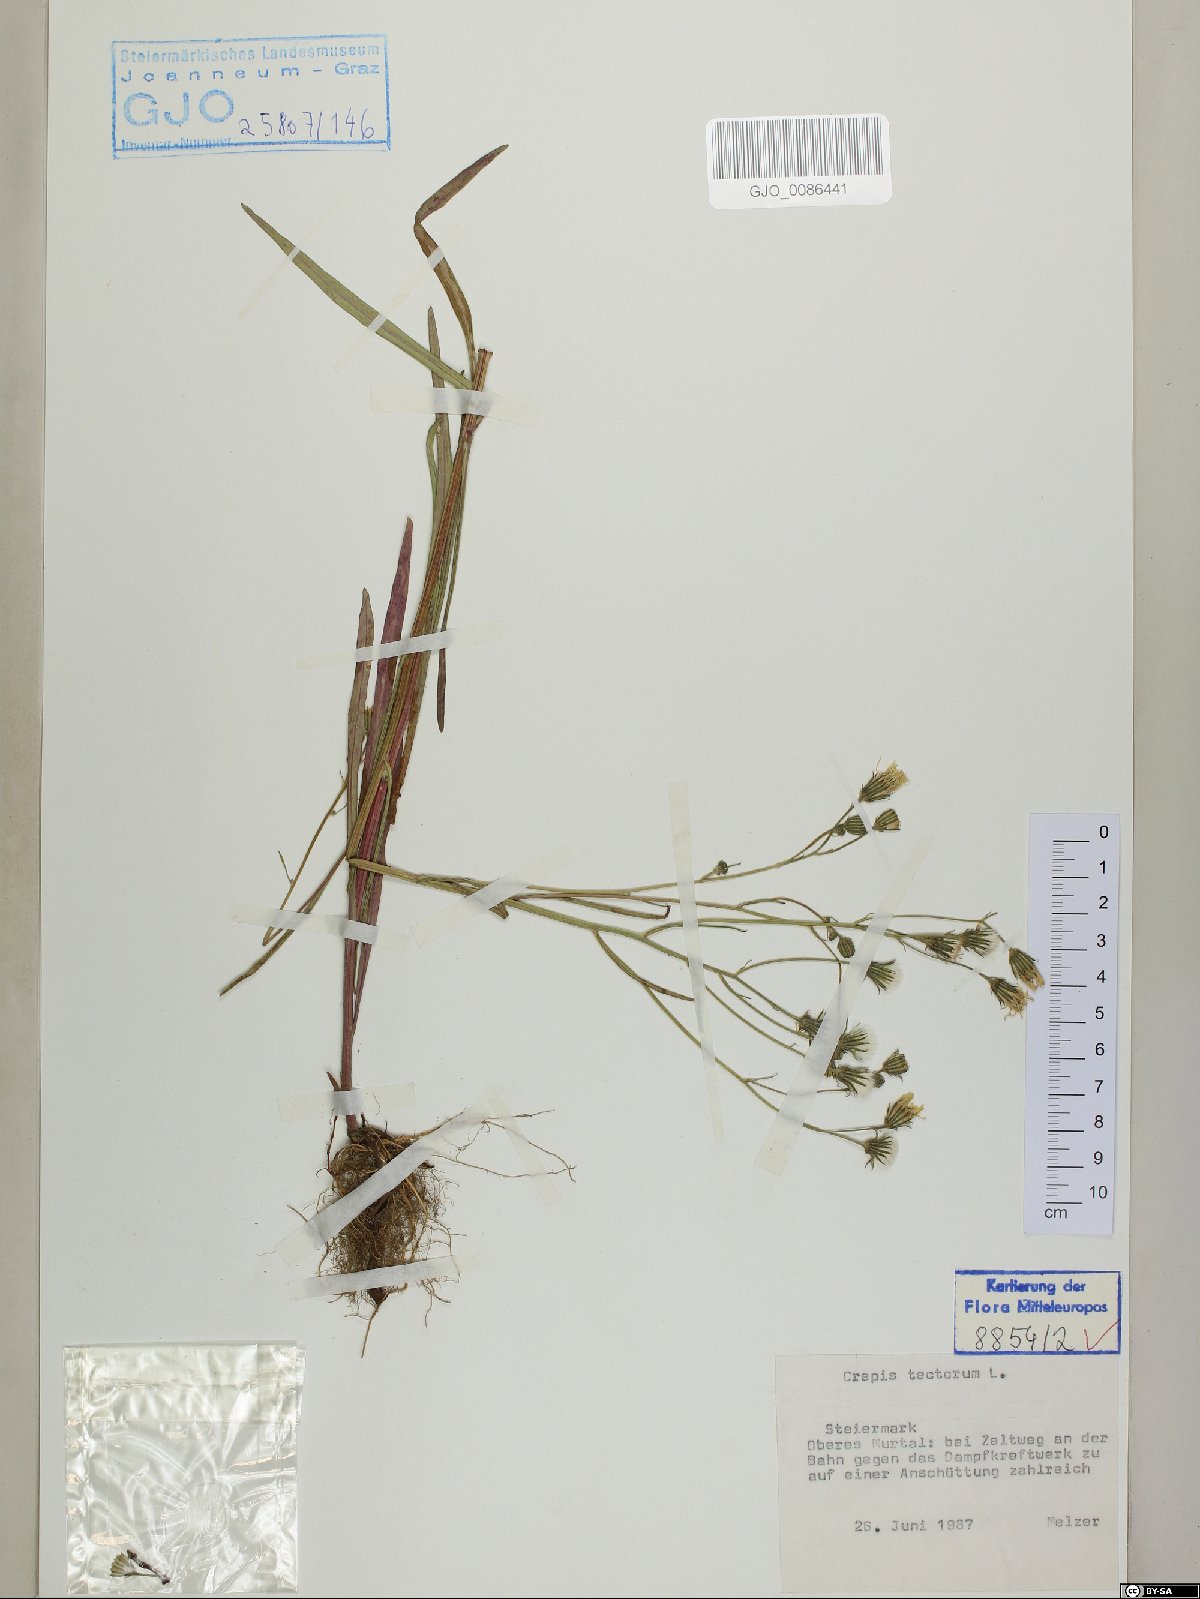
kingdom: Plantae
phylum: Tracheophyta
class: Magnoliopsida
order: Asterales
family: Asteraceae
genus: Crepis
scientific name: Crepis tectorum
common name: Narrow-leaved hawk's-beard
